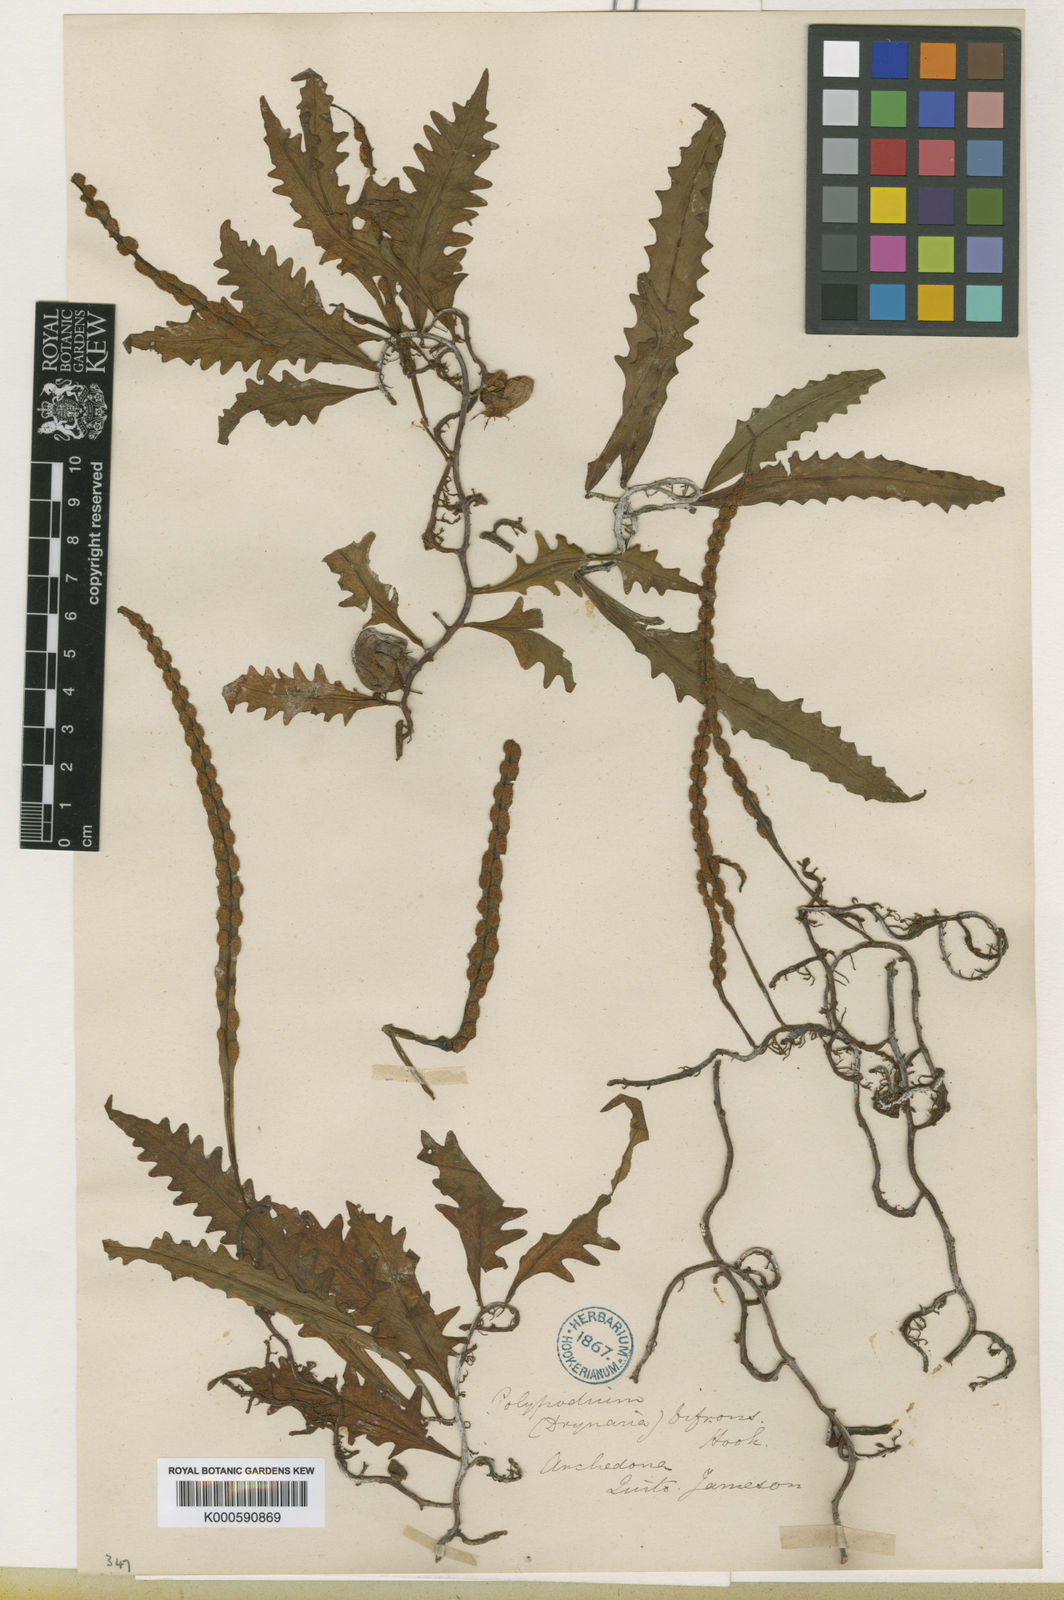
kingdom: Plantae
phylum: Tracheophyta
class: Polypodiopsida
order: Polypodiales
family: Polypodiaceae
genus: Microgramma
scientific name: Microgramma bifrons
